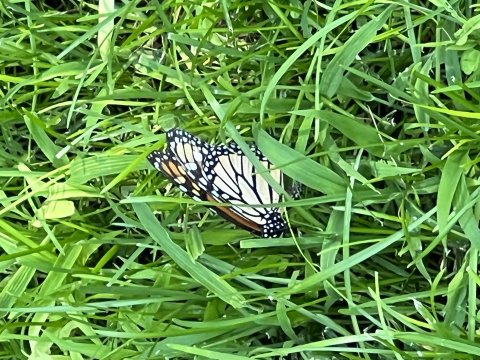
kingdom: Animalia
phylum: Arthropoda
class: Insecta
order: Lepidoptera
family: Nymphalidae
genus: Danaus
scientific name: Danaus plexippus
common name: Monarch
